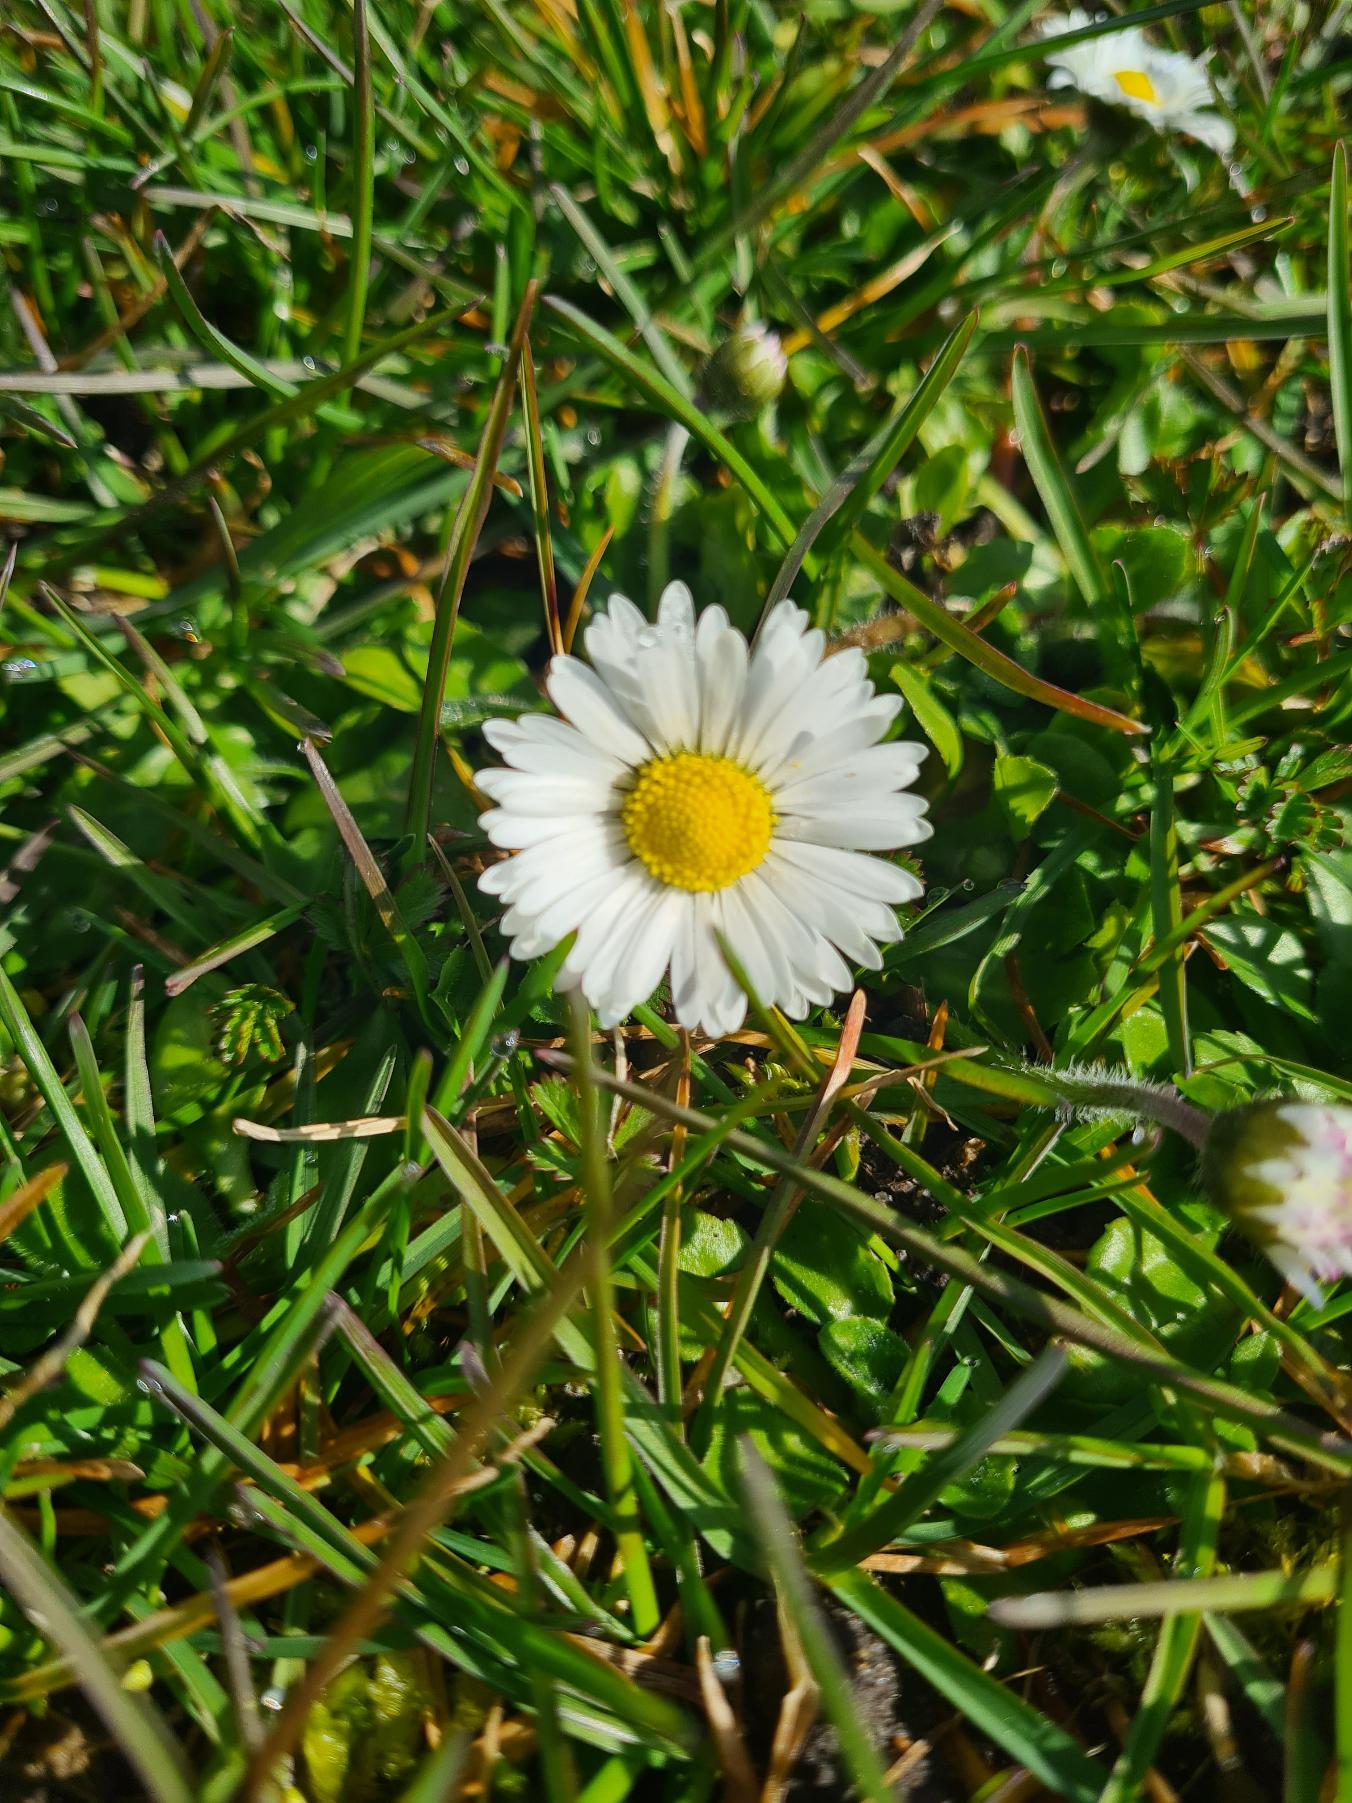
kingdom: Plantae
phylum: Tracheophyta
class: Magnoliopsida
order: Asterales
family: Asteraceae
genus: Bellis
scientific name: Bellis perennis
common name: Tusindfryd
